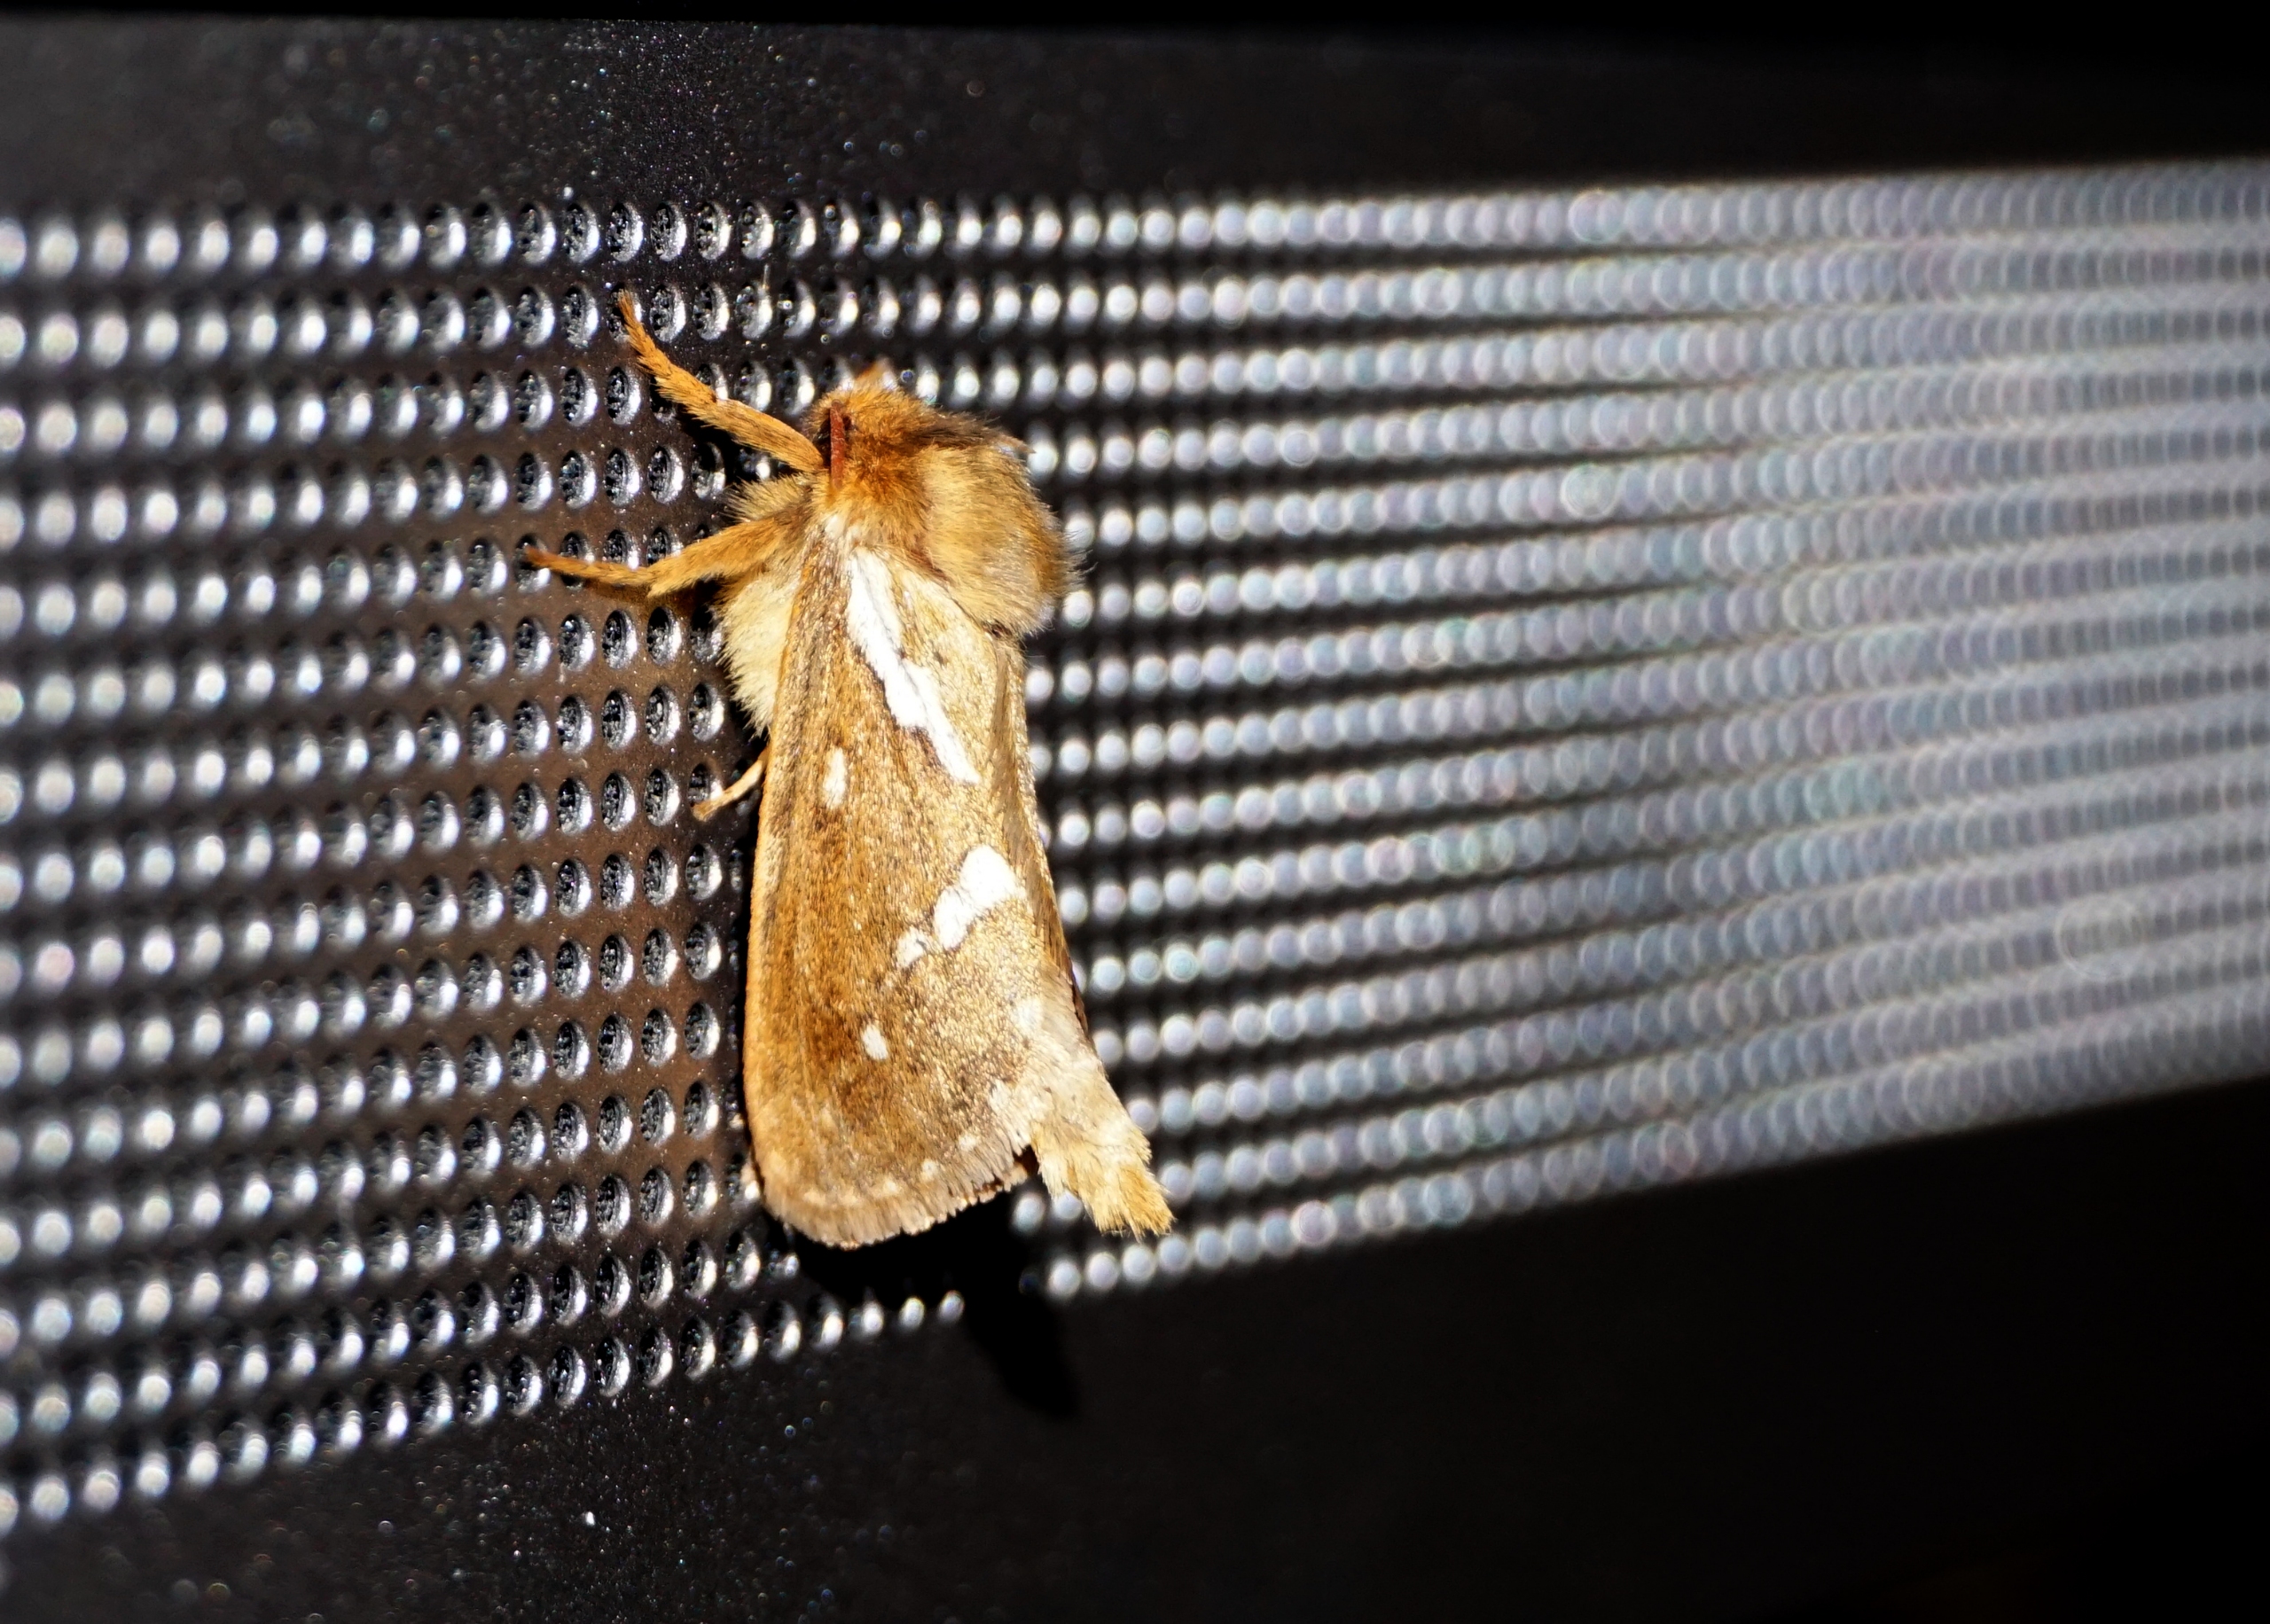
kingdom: Animalia
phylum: Arthropoda
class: Insecta
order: Lepidoptera
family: Hepialidae
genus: Korscheltellus
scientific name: Korscheltellus lupulina
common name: Konvalrodæder
